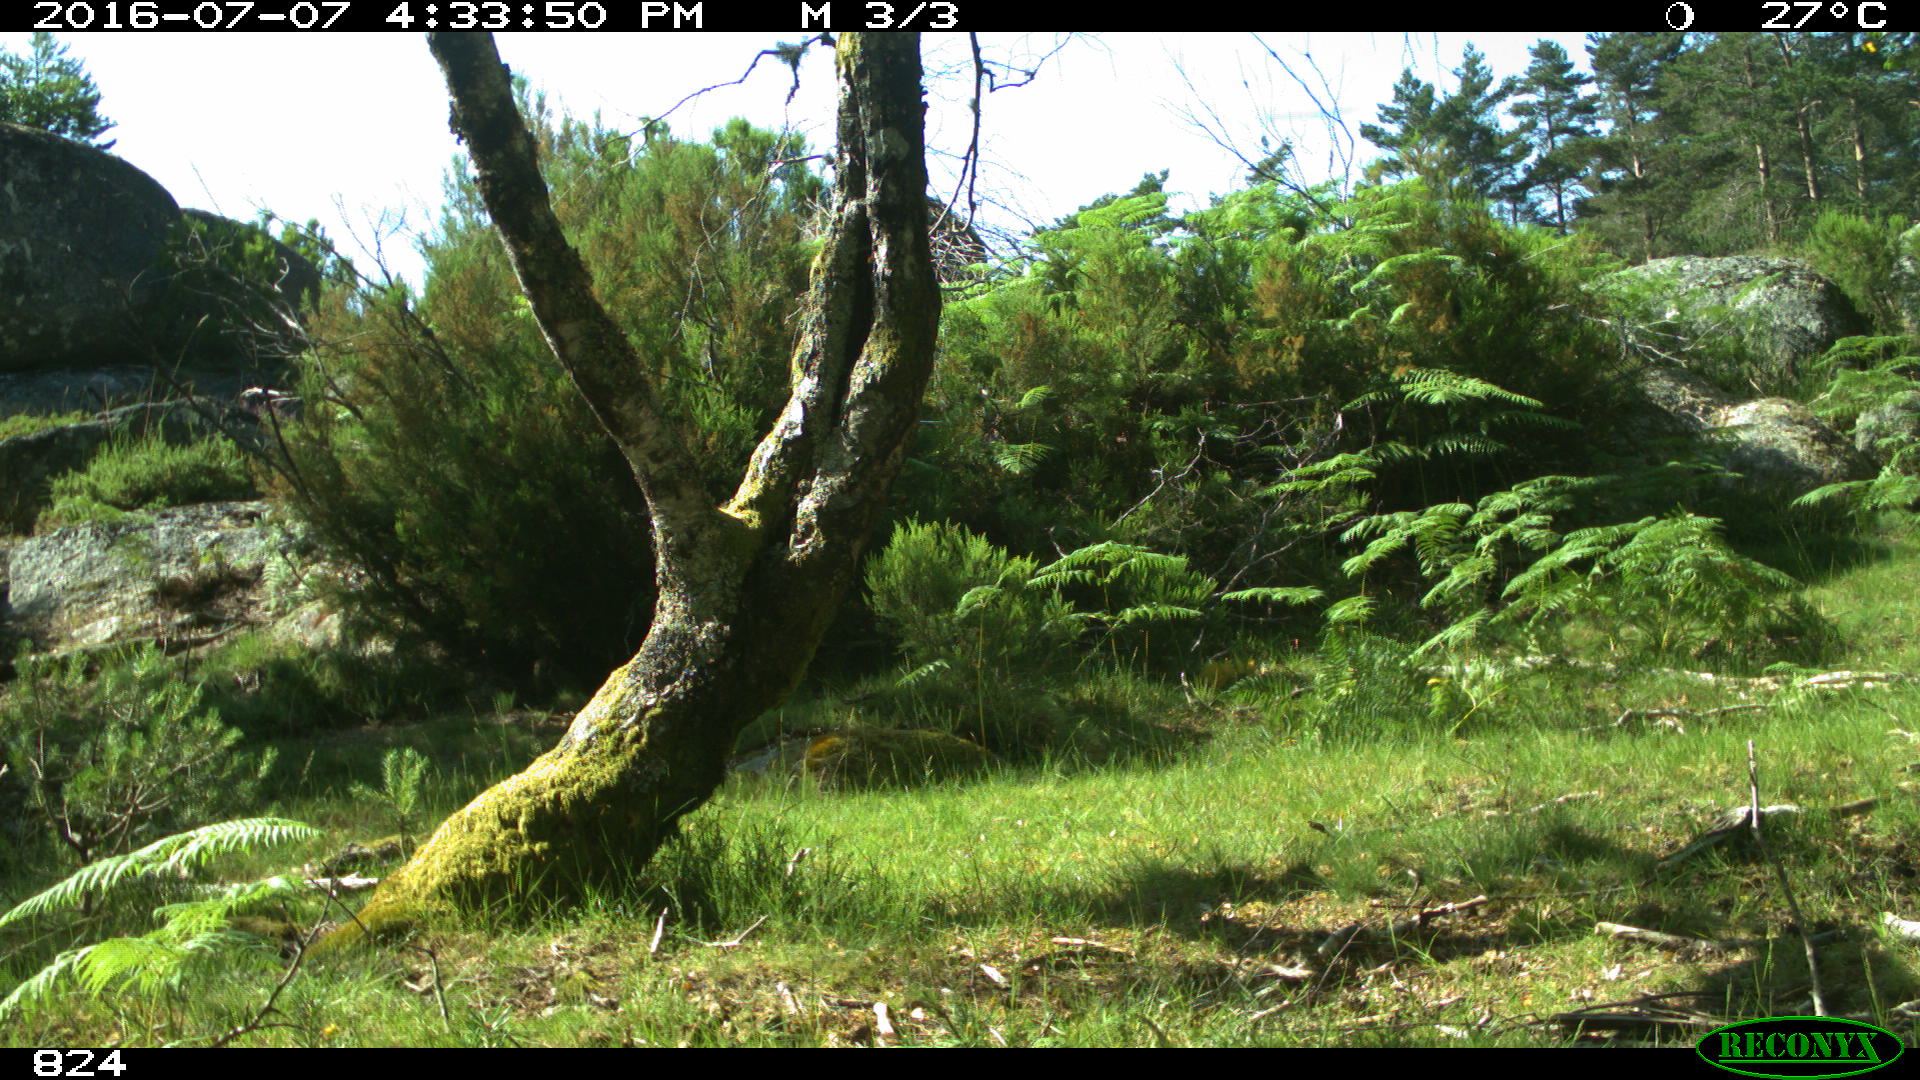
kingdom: Animalia
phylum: Chordata
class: Mammalia
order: Perissodactyla
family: Equidae
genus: Equus
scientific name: Equus caballus
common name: Horse
